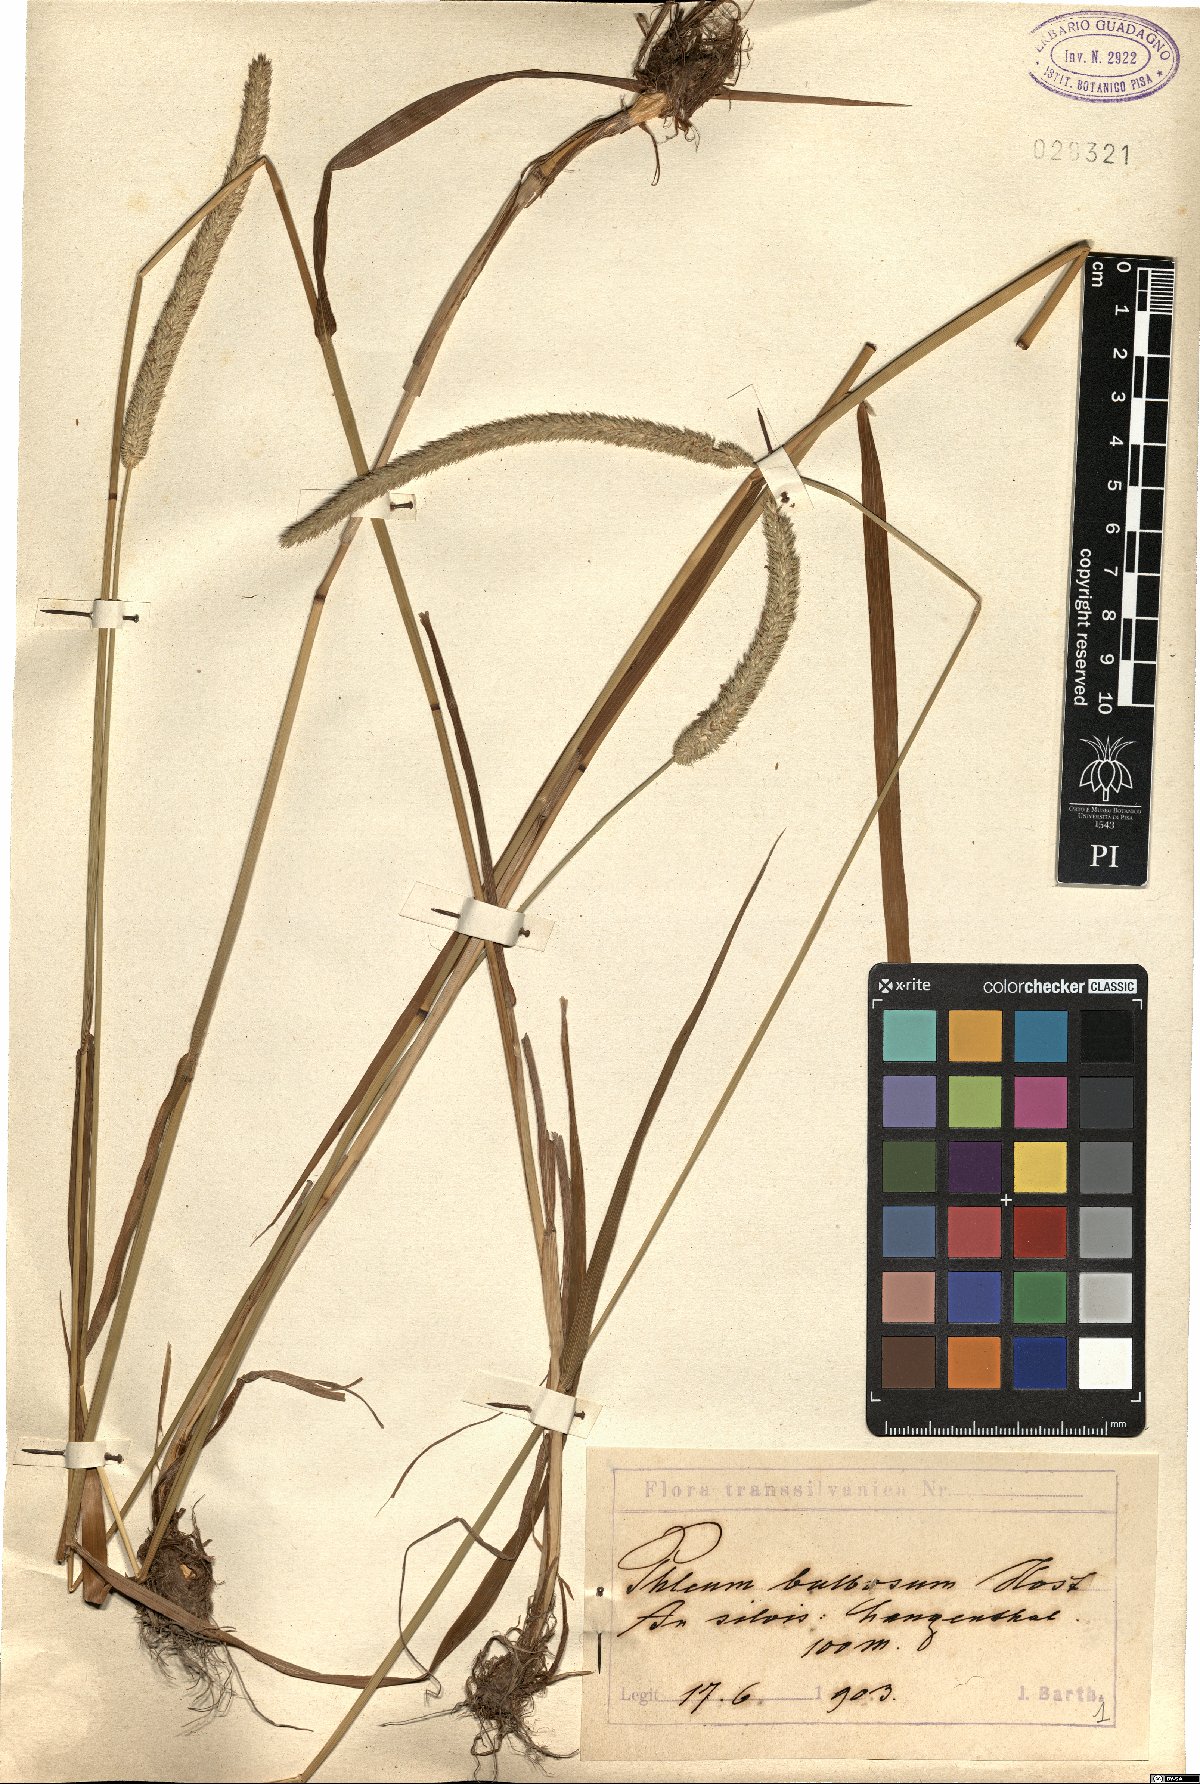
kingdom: Plantae
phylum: Tracheophyta
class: Liliopsida
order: Poales
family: Poaceae
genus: Phleum
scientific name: Phleum pratense
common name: Timothy grass
